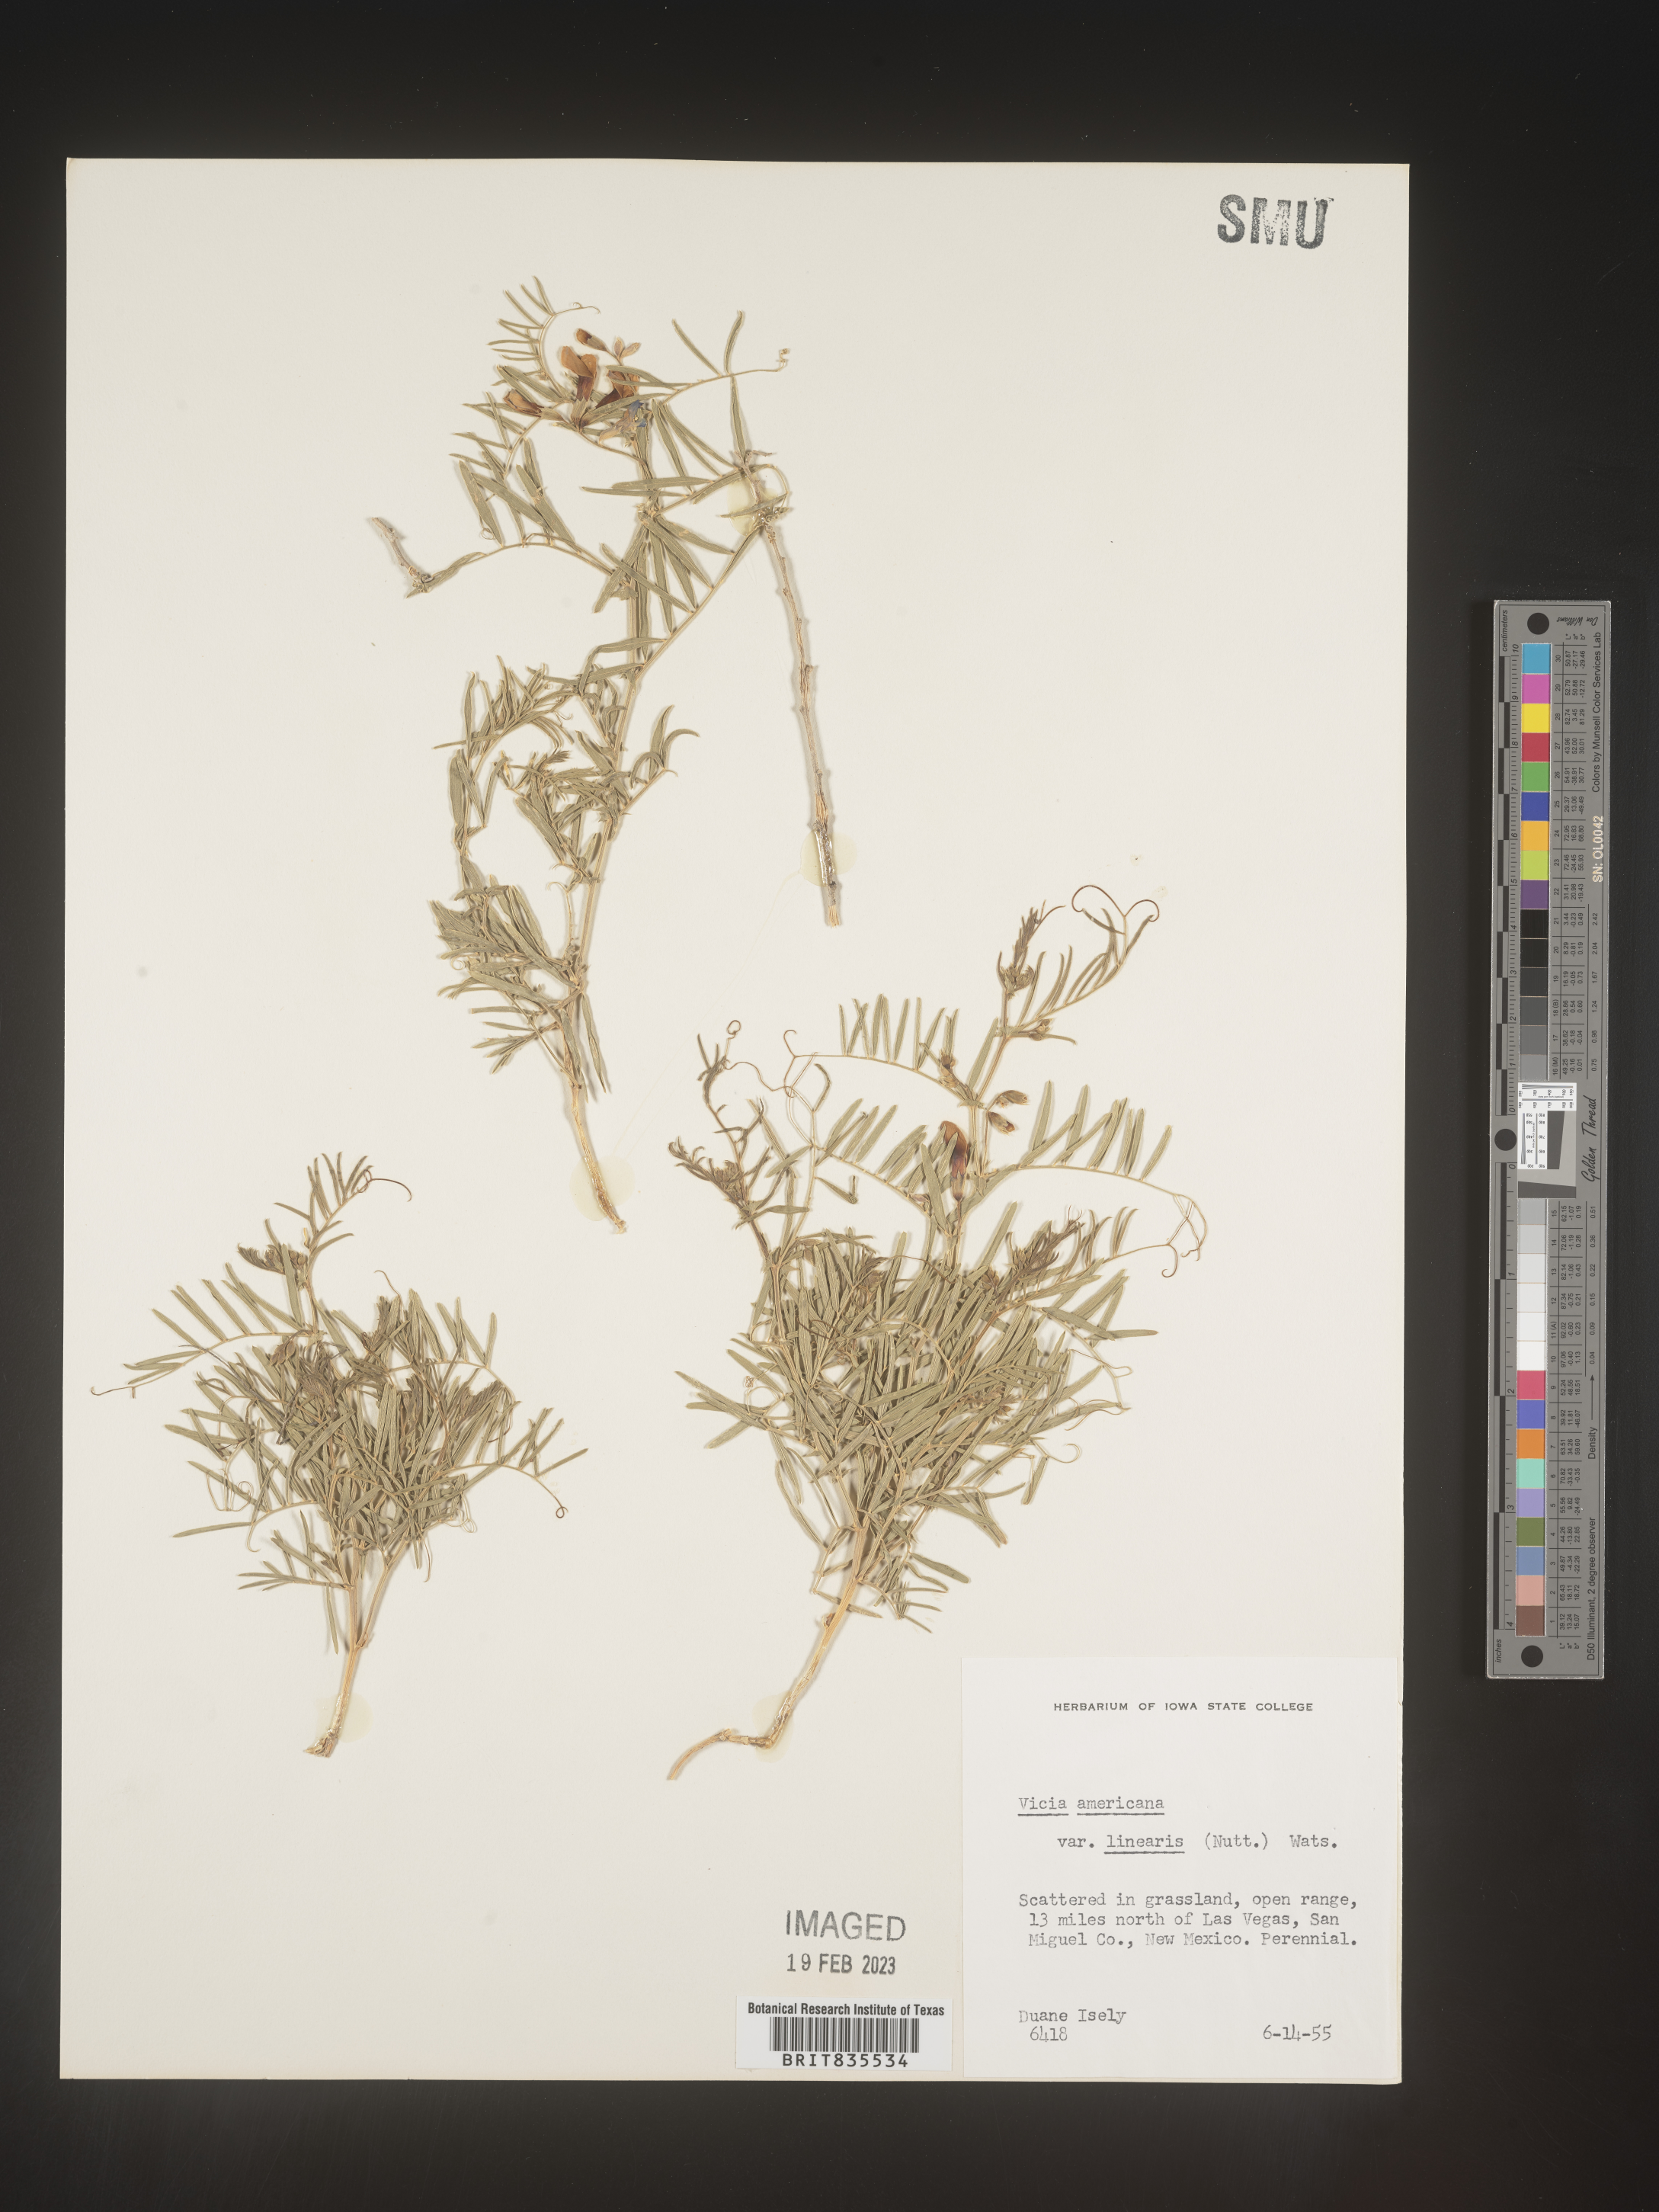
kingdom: Plantae
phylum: Tracheophyta
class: Magnoliopsida
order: Fabales
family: Fabaceae
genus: Vicia
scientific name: Vicia americana
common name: American vetch
